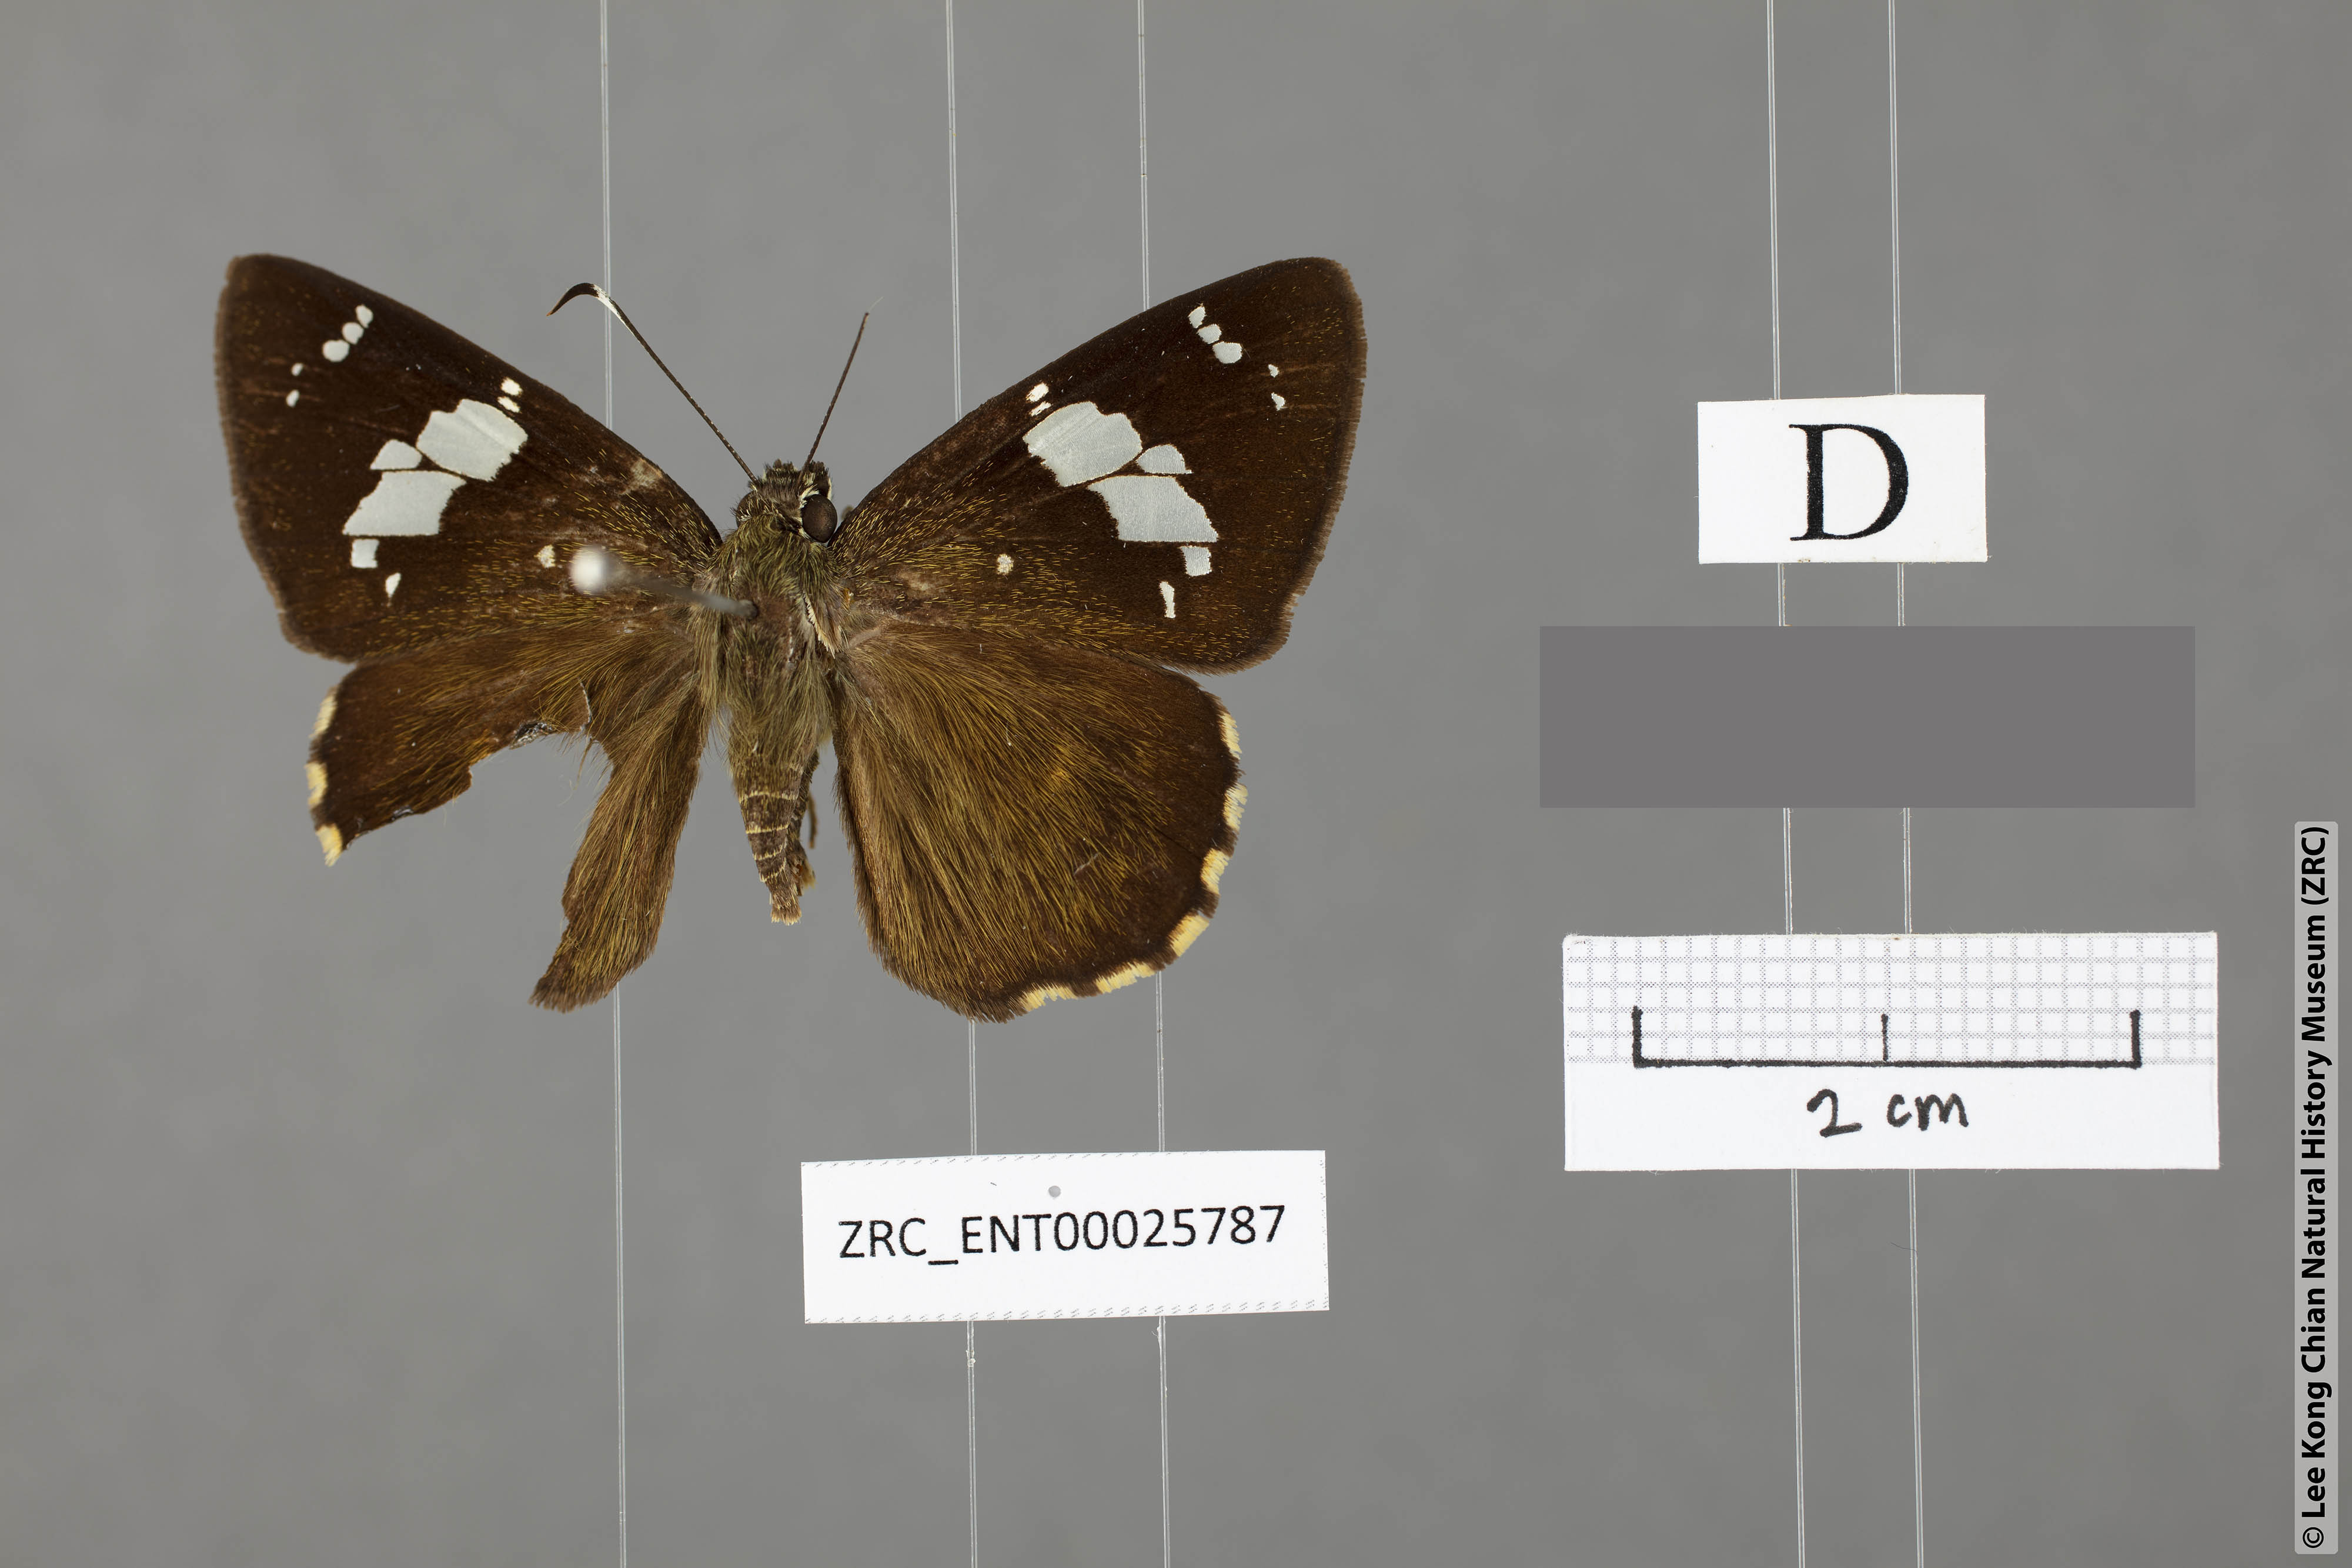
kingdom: Animalia
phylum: Arthropoda
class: Insecta
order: Lepidoptera
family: Hesperiidae
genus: Celaenorrhinus
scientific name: Celaenorrhinus pyrrha
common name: Double-spotted flat
